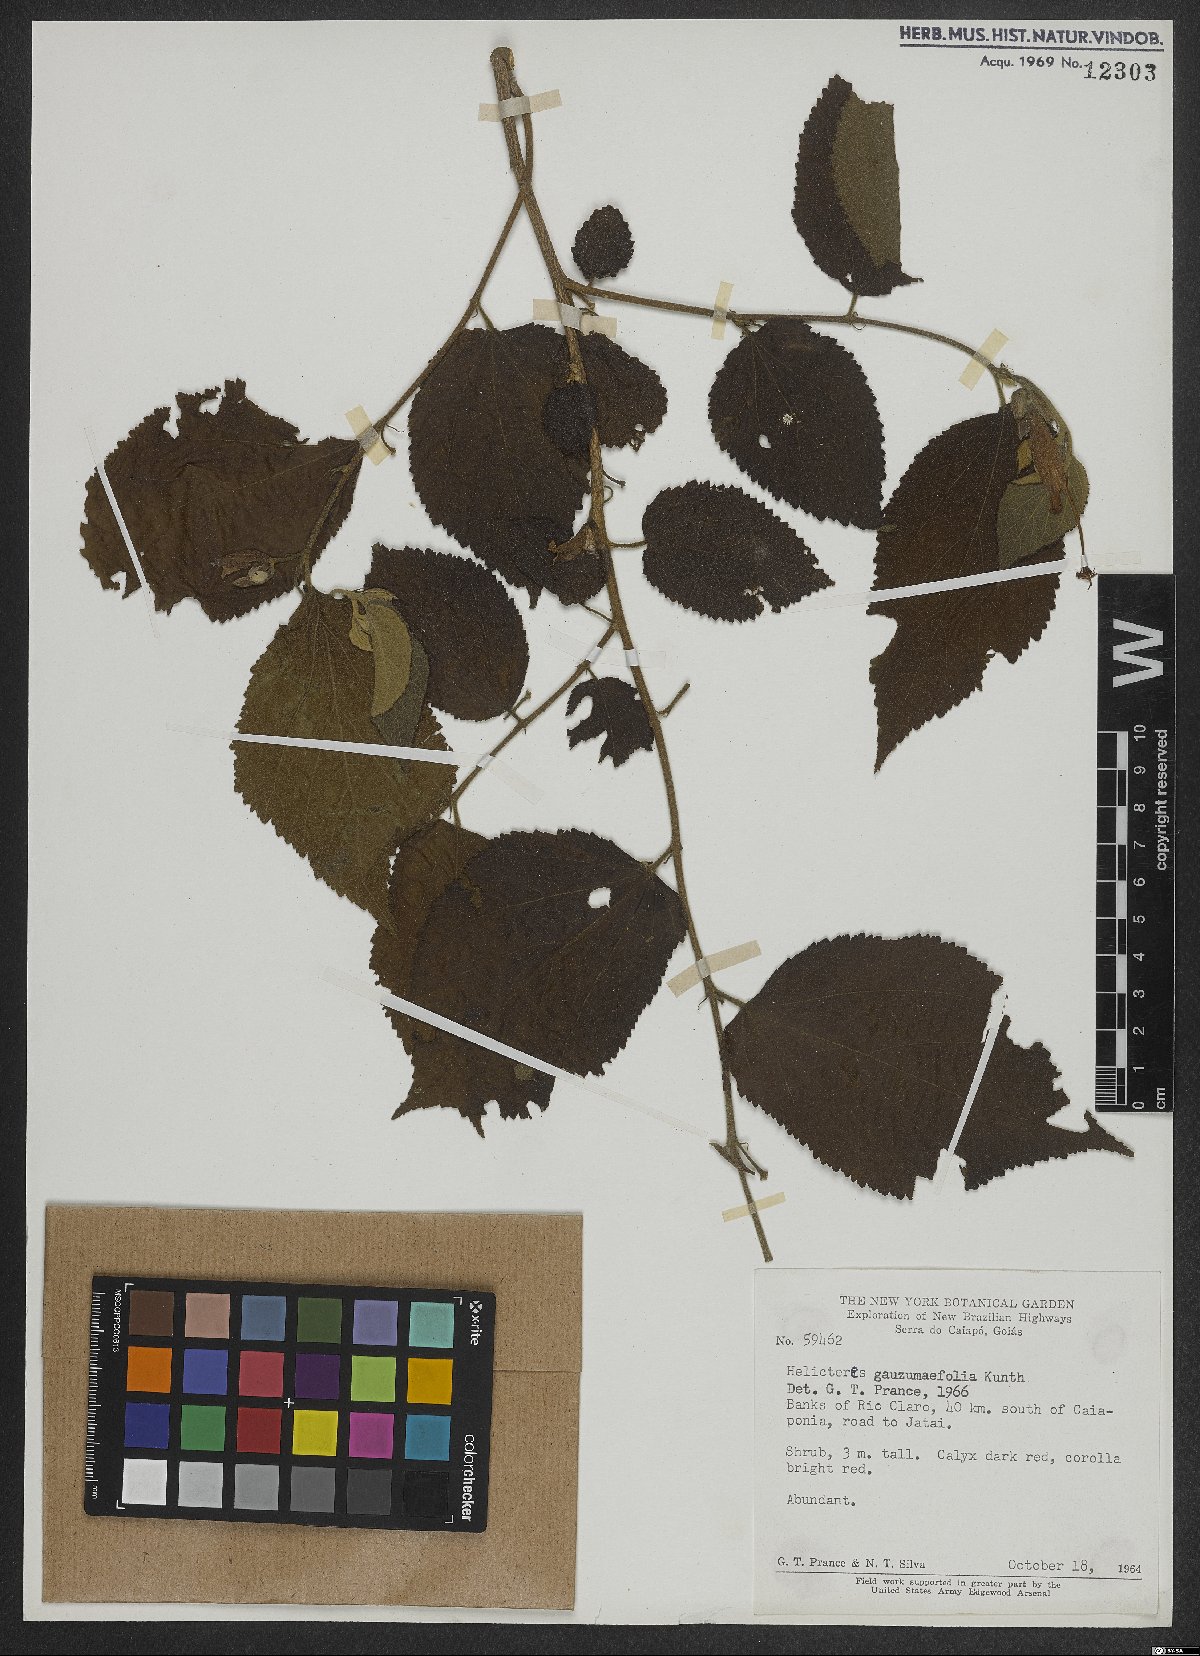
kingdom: Plantae
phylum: Tracheophyta
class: Magnoliopsida
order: Malvales
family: Malvaceae
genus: Helicteres
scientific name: Helicteres guazumifolia
